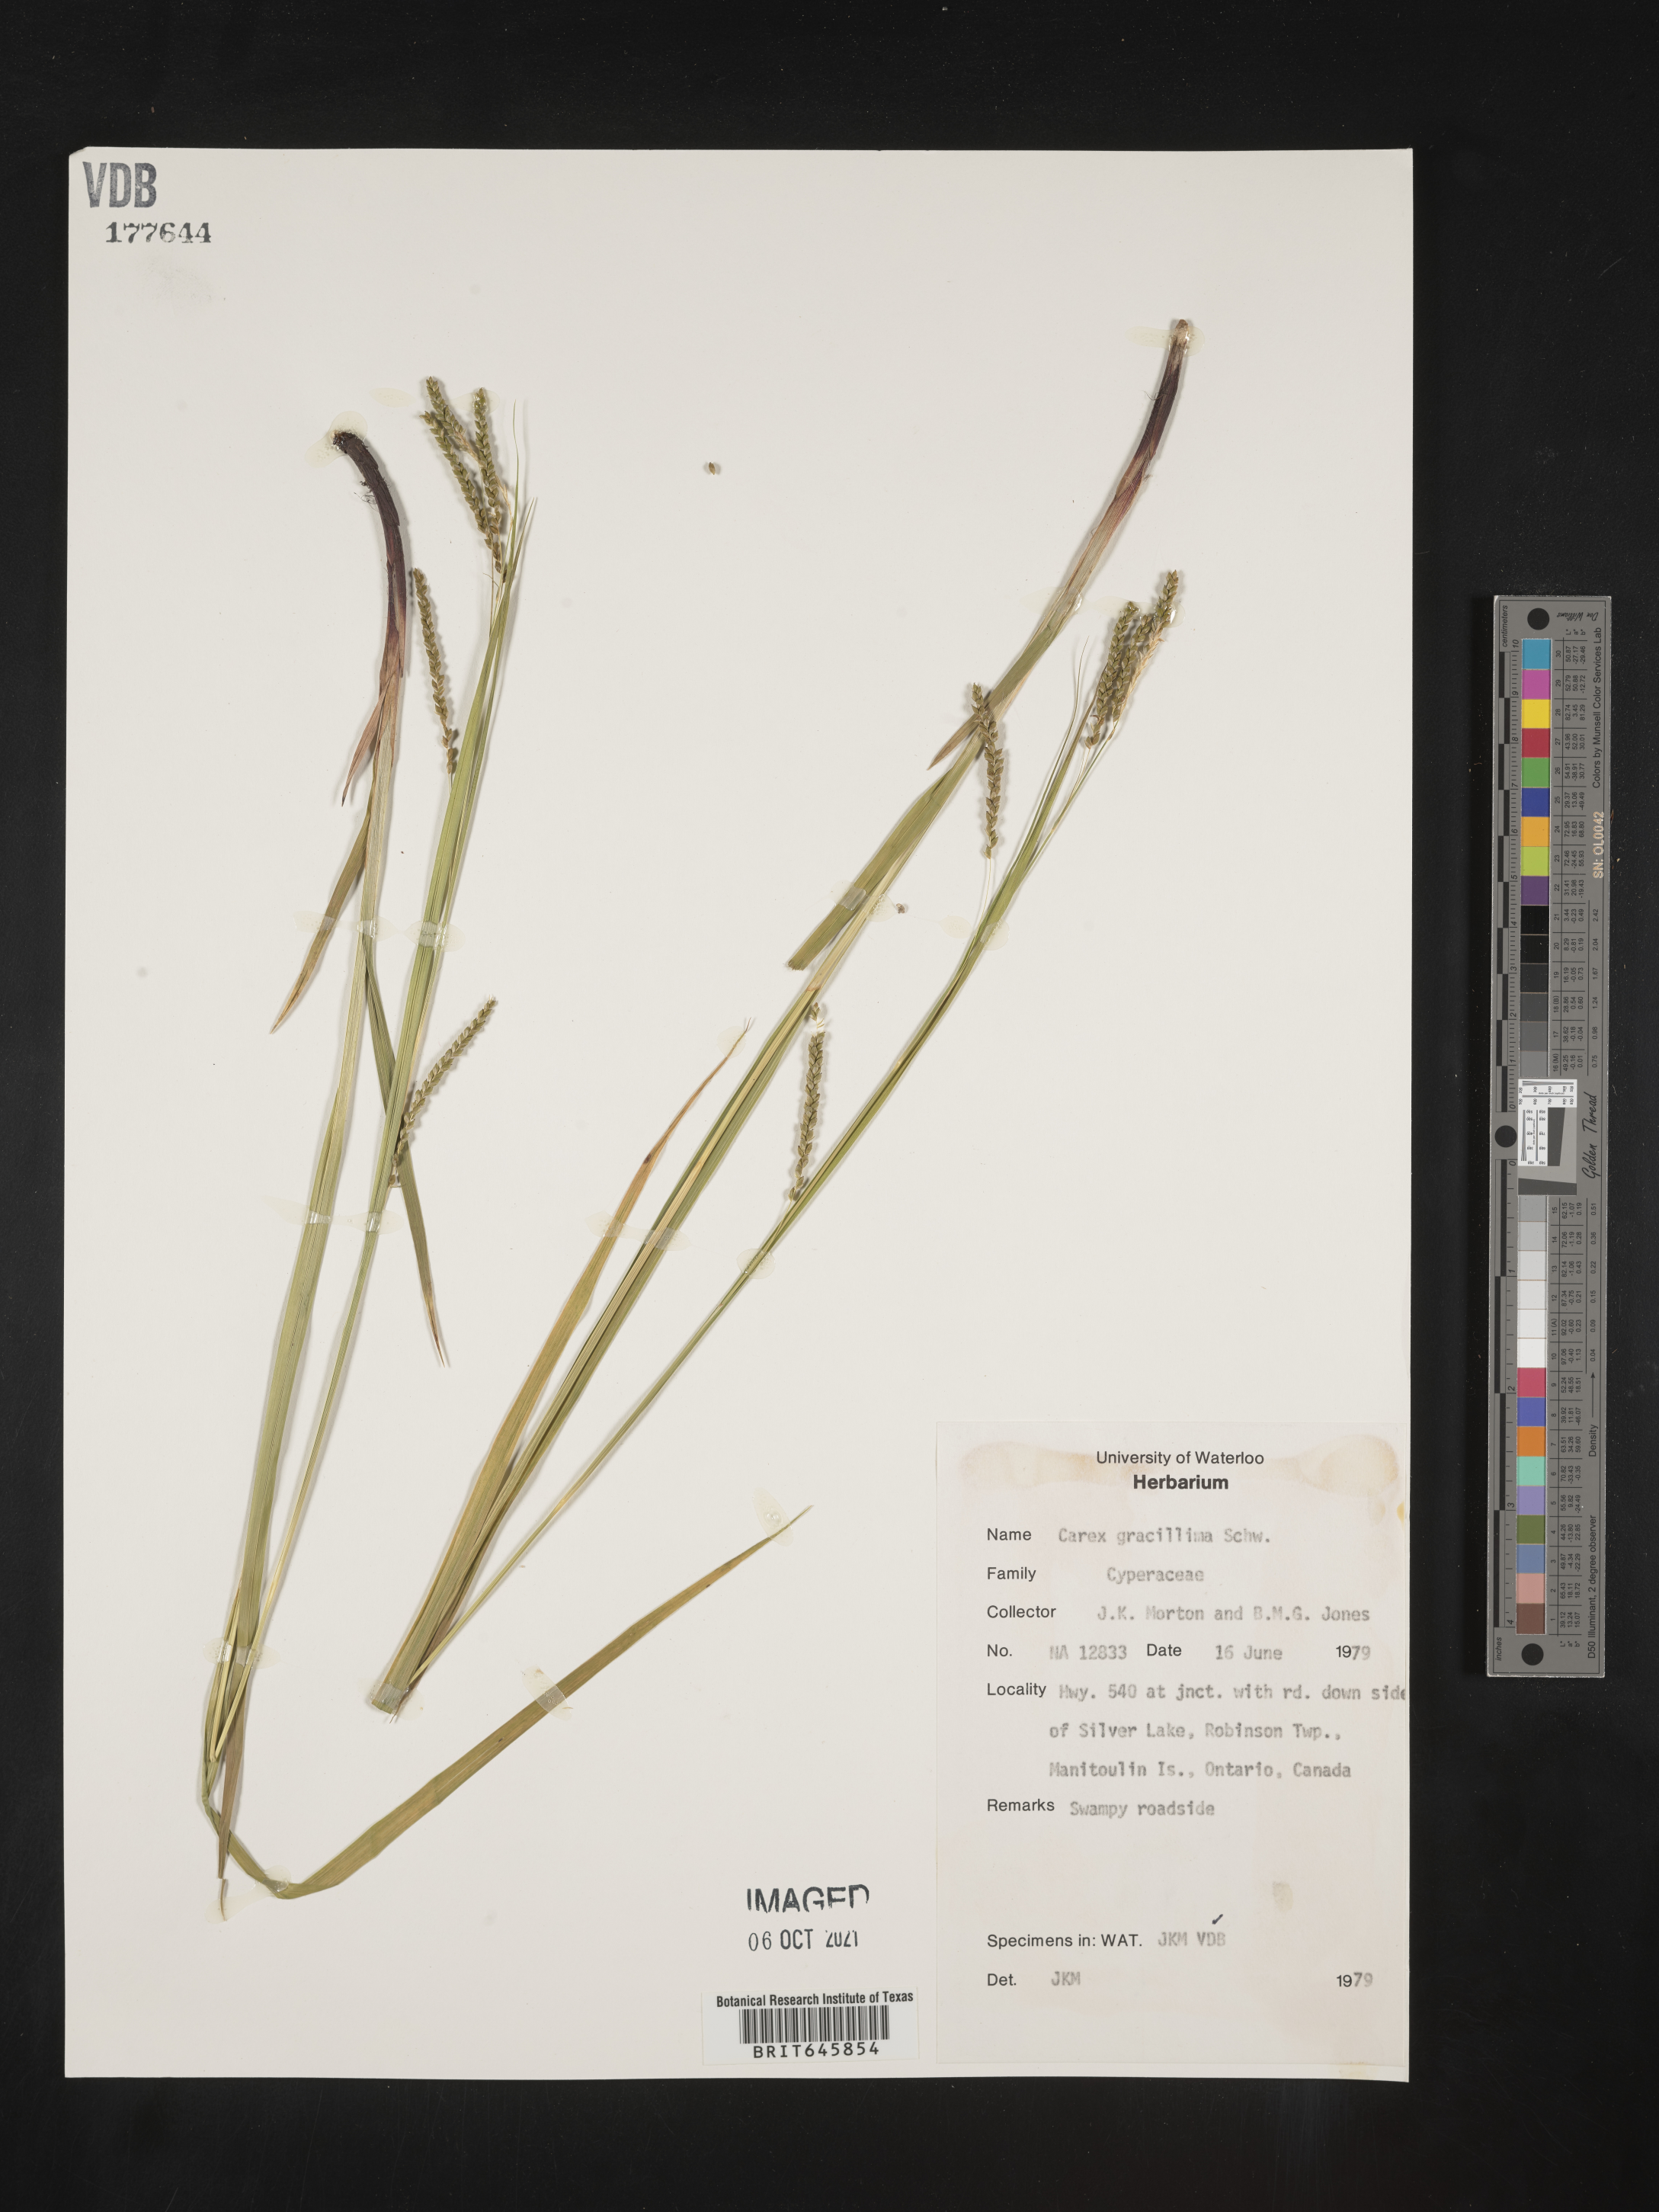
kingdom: Plantae
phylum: Tracheophyta
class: Liliopsida
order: Poales
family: Cyperaceae
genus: Carex
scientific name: Carex gracillima
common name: Graceful sedge
